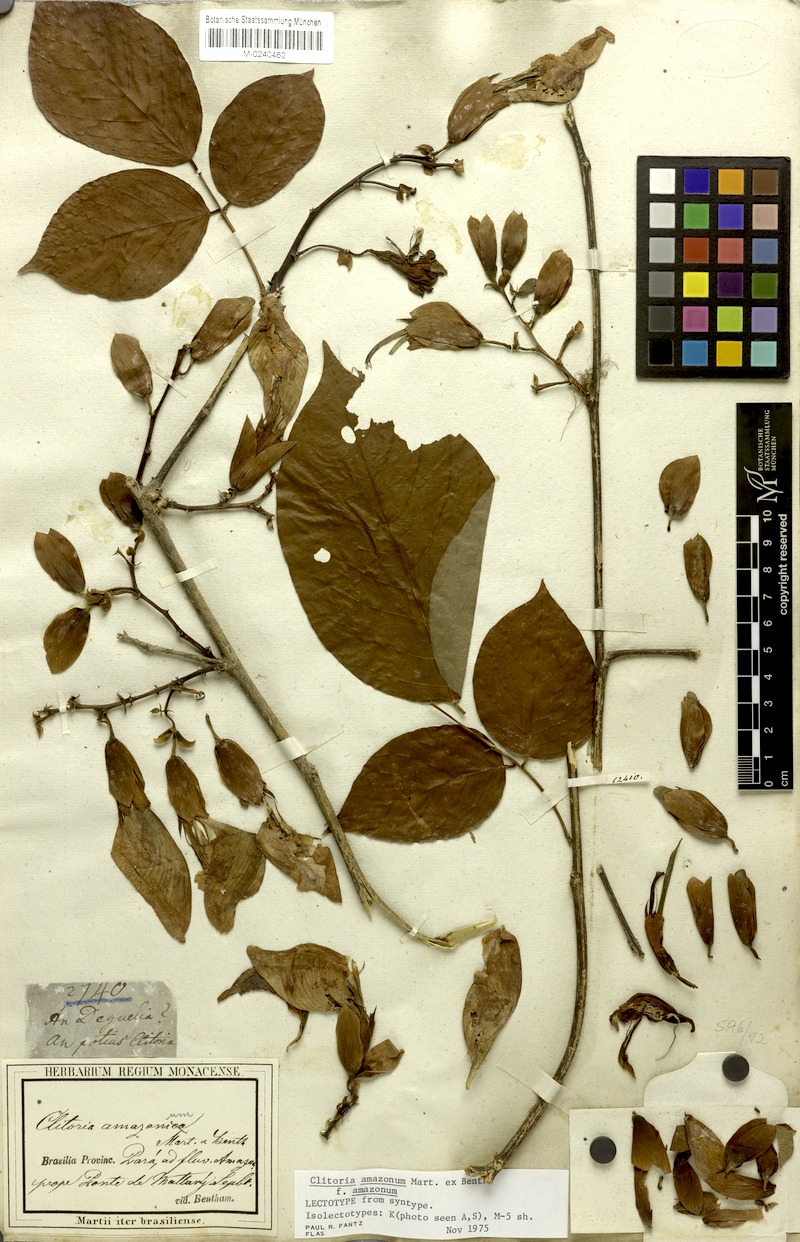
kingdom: Plantae
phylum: Tracheophyta
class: Magnoliopsida
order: Fabales
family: Fabaceae
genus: Clitoria
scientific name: Clitoria amazonum
